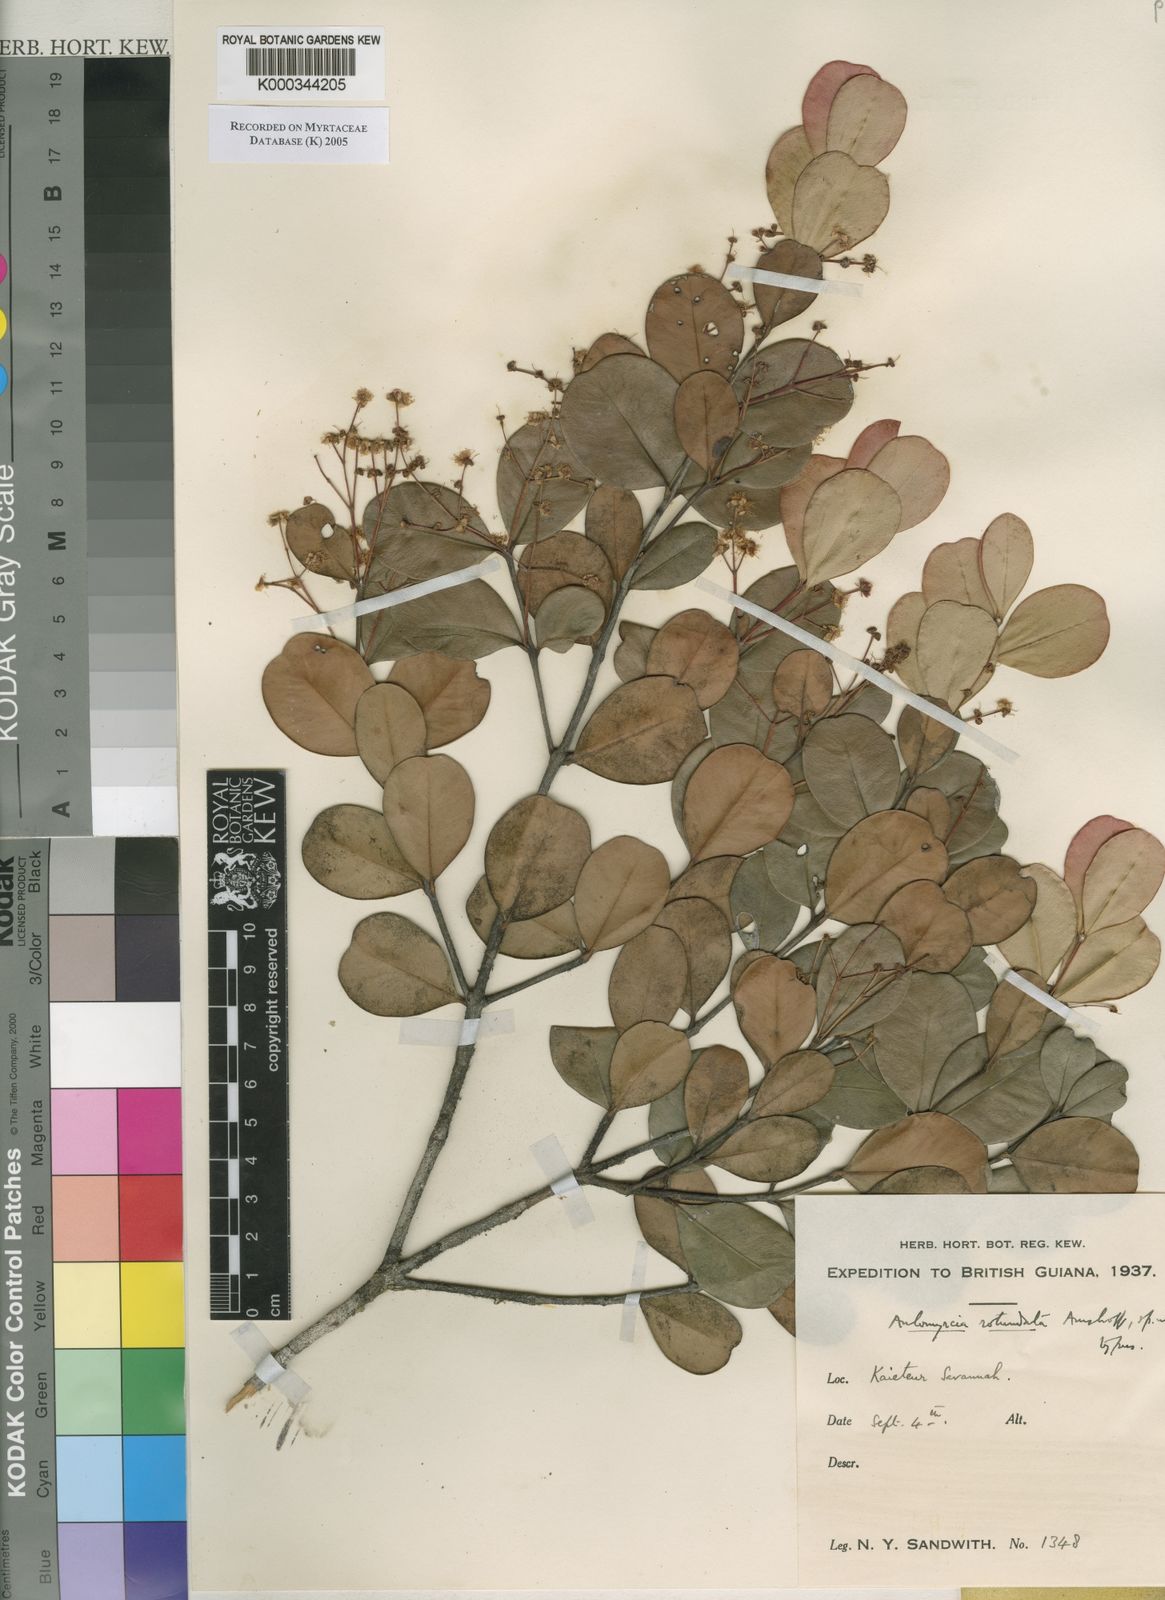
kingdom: Plantae
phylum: Tracheophyta
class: Magnoliopsida
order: Myrtales
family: Myrtaceae
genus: Myrcia
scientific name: Myrcia rotundifolia
